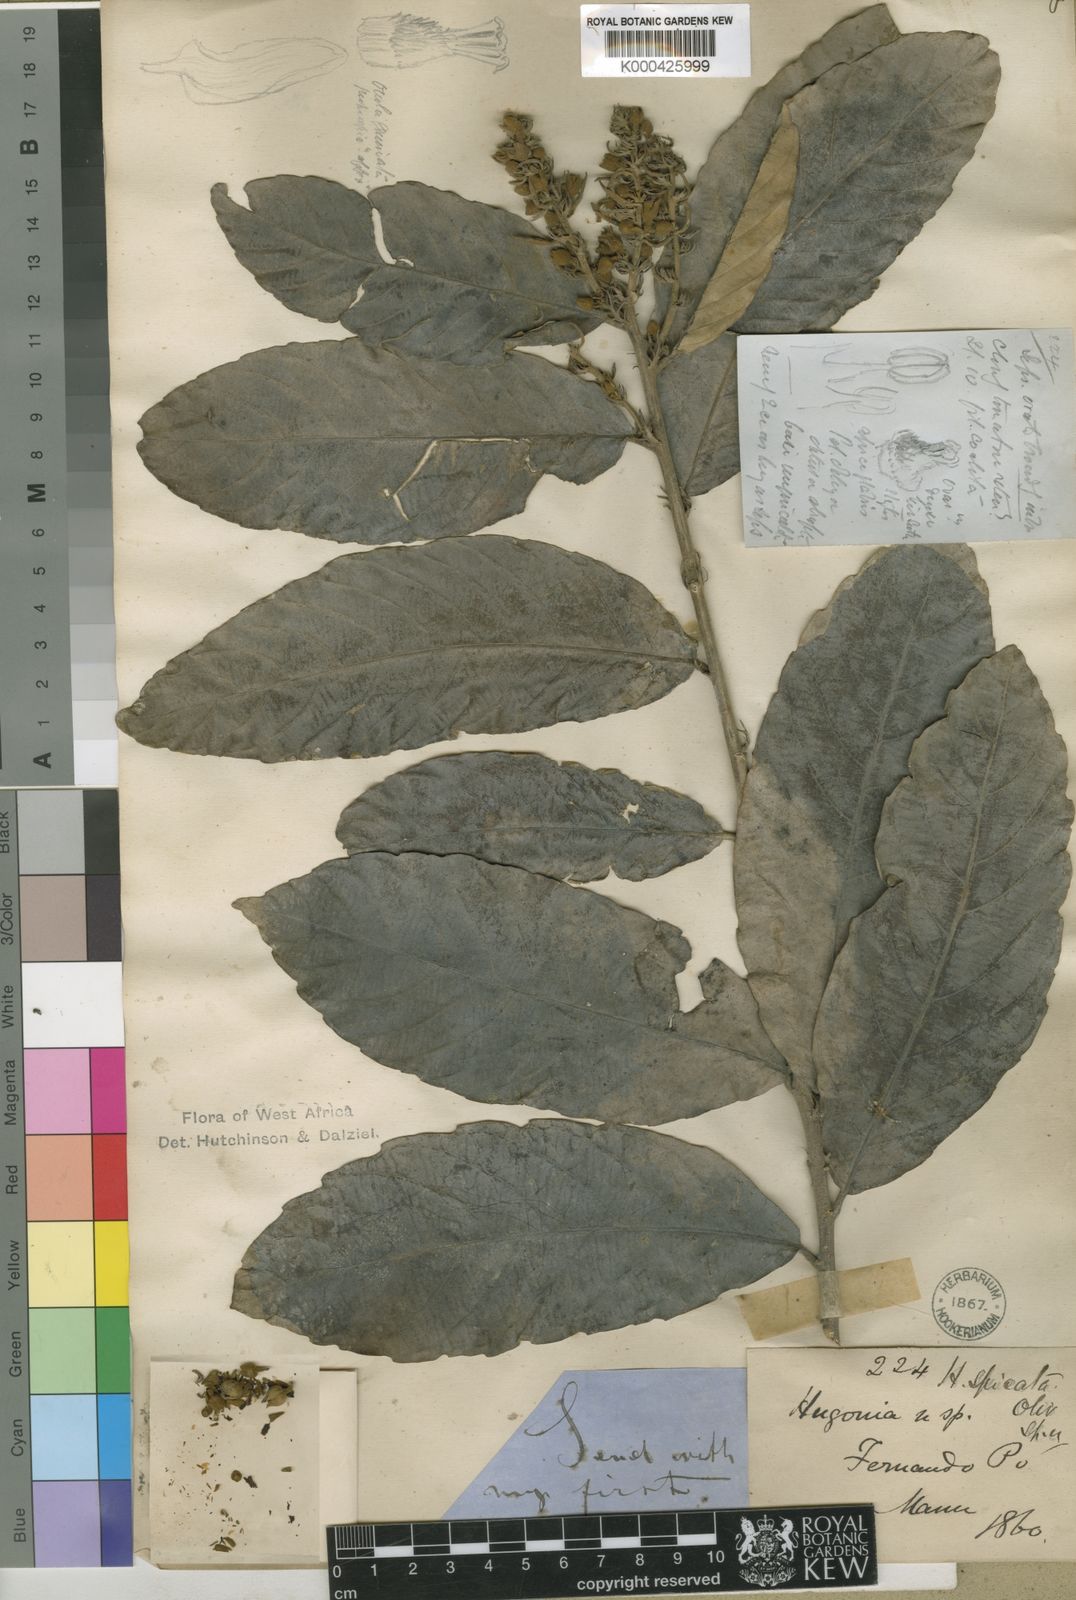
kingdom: Plantae
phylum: Tracheophyta
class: Magnoliopsida
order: Malpighiales
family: Linaceae
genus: Hugonia
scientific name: Hugonia spicata
